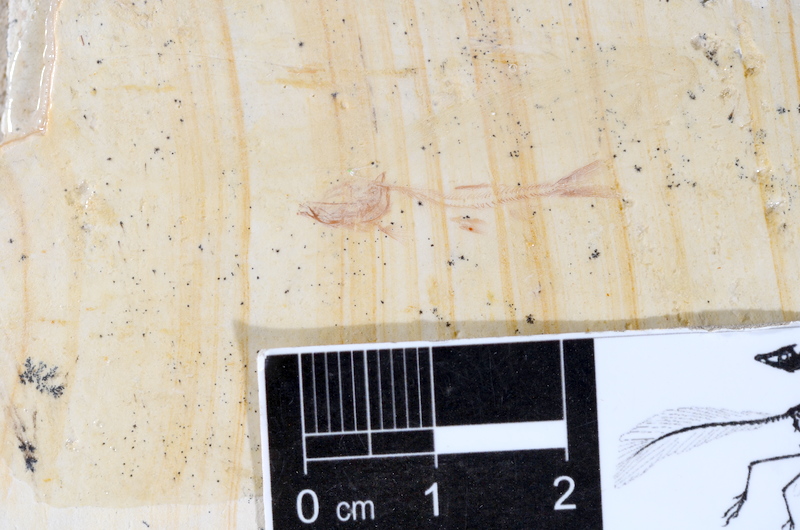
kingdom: Animalia
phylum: Chordata
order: Salmoniformes
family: Orthogonikleithridae
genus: Leptolepides
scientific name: Leptolepides
